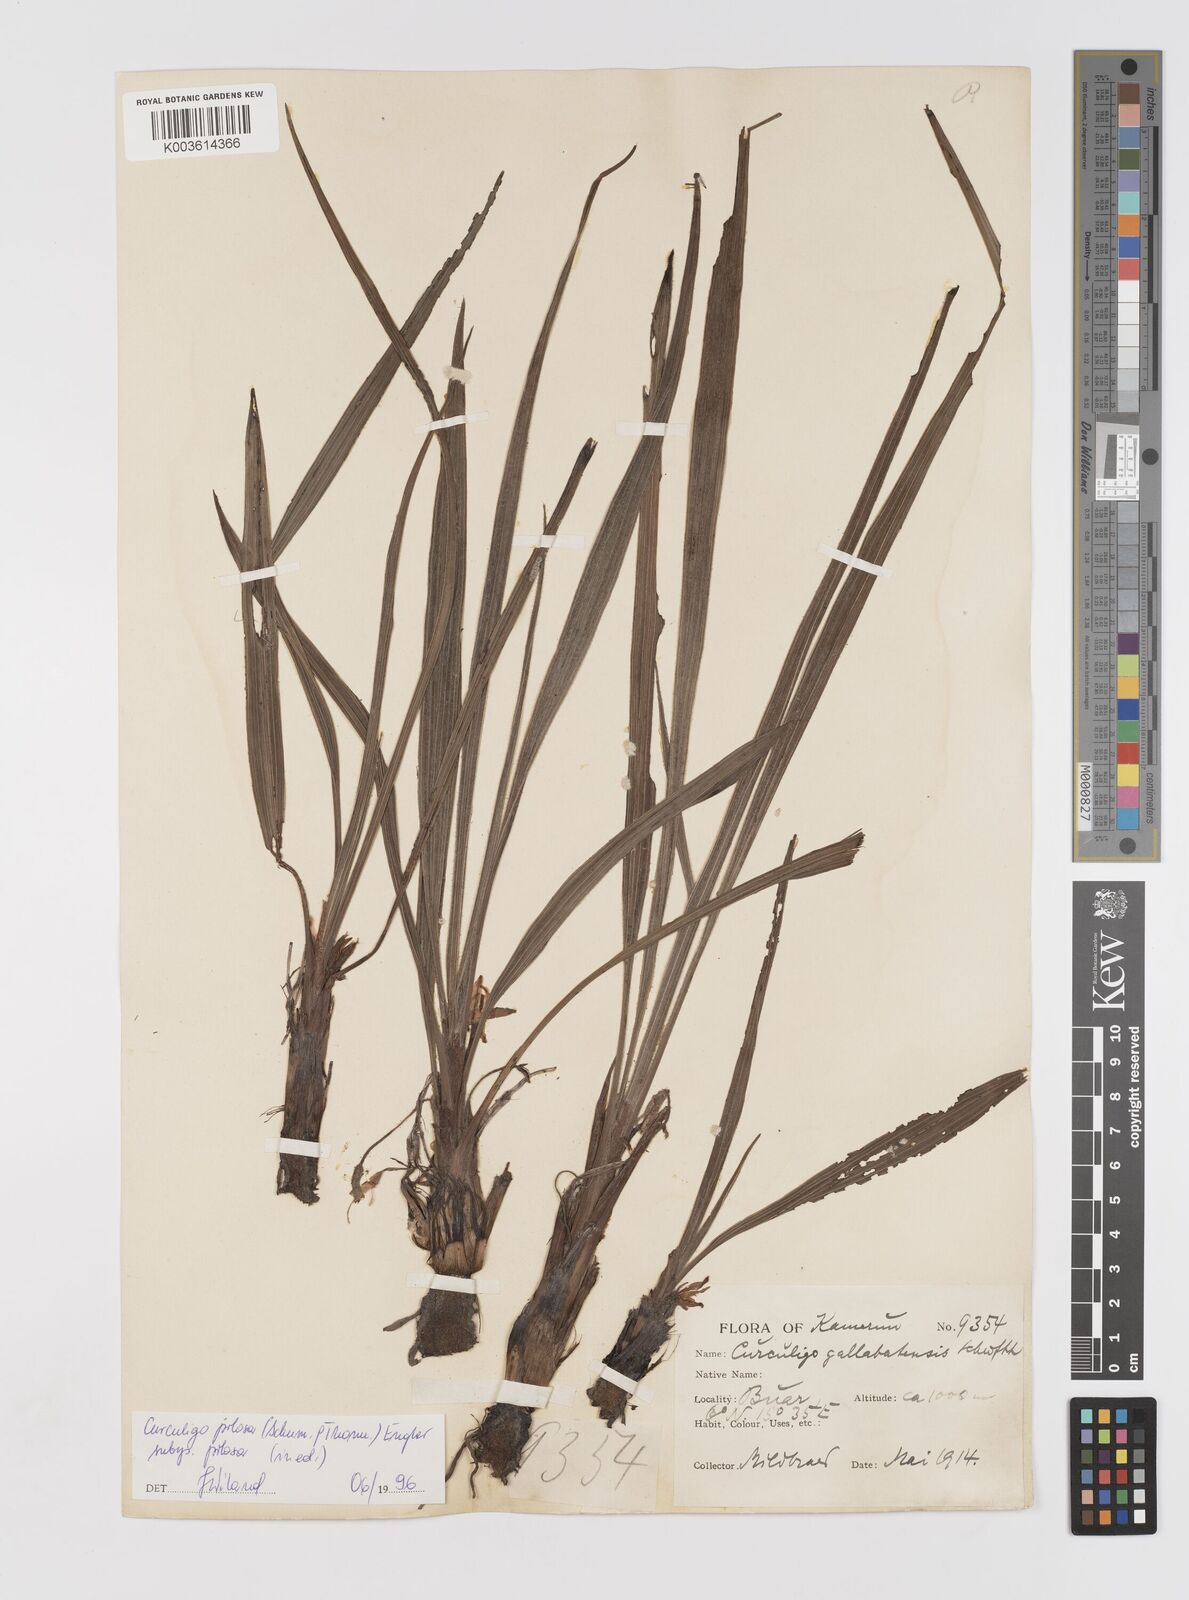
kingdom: Plantae
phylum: Tracheophyta
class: Liliopsida
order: Asparagales
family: Hypoxidaceae
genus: Curculigo
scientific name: Curculigo pilosa
